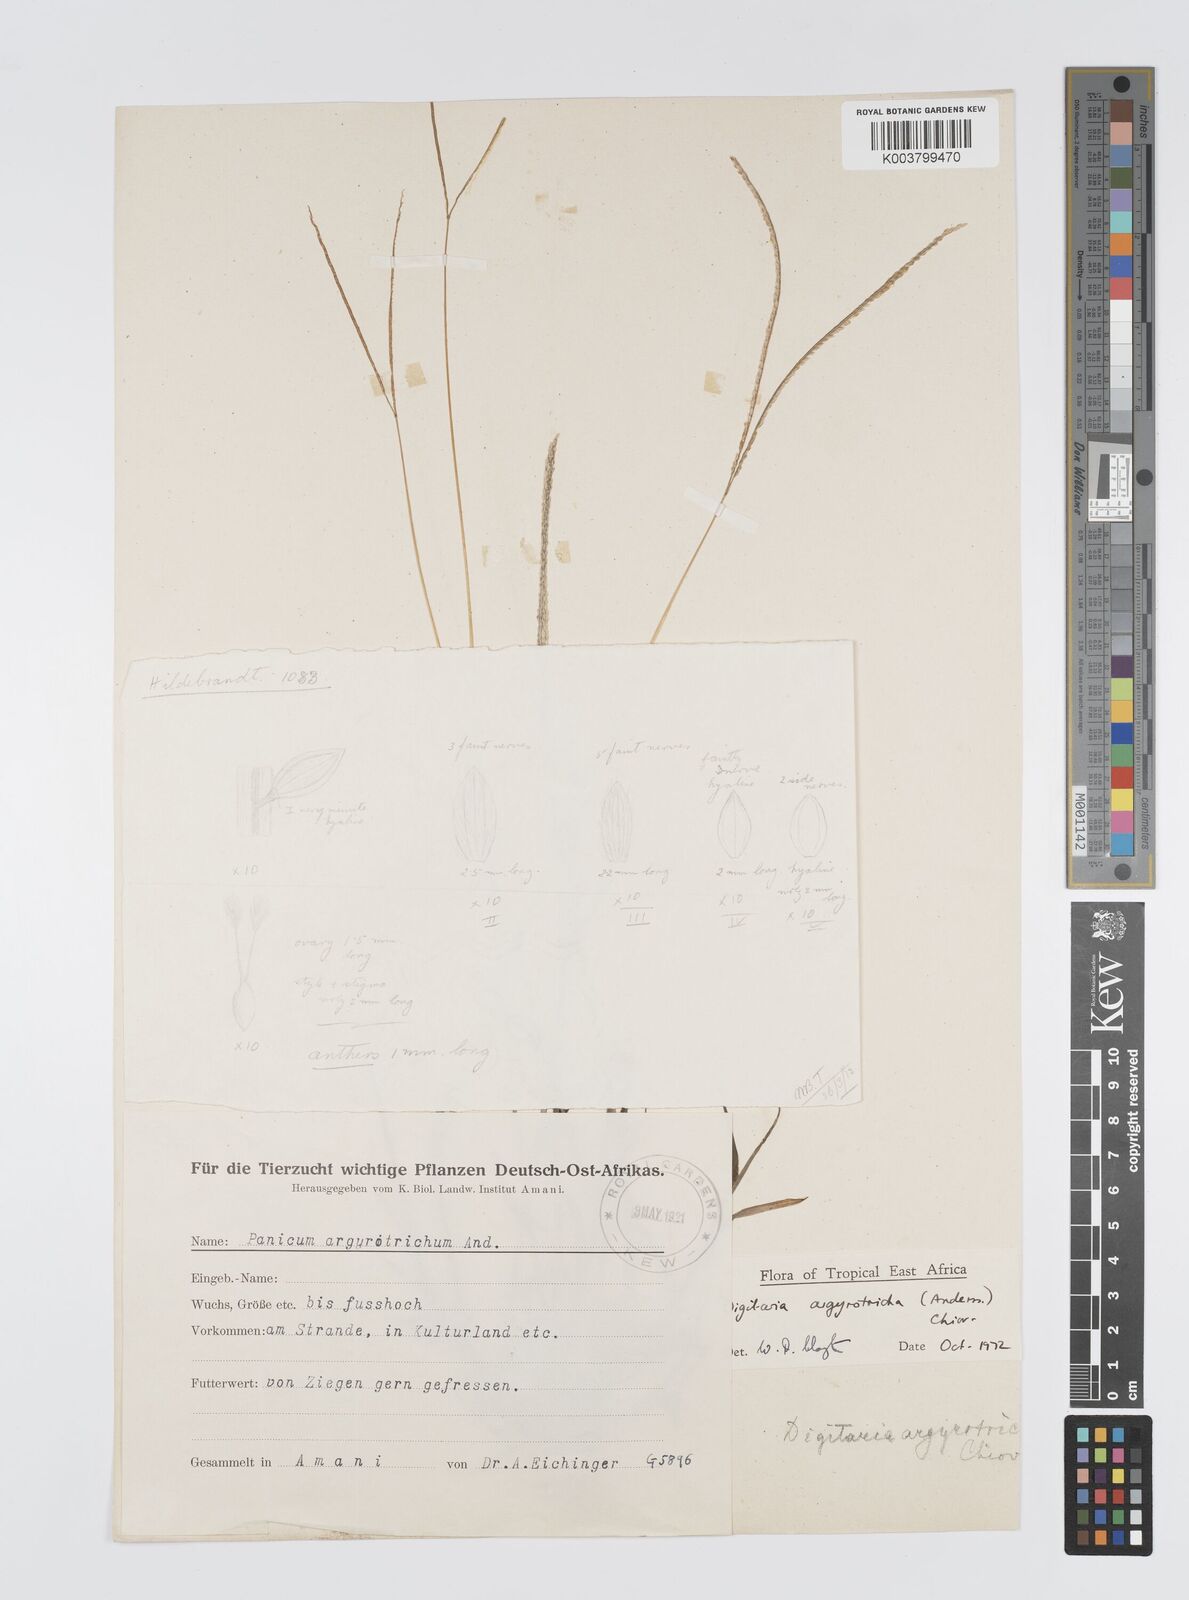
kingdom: Plantae
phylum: Tracheophyta
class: Liliopsida
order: Poales
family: Poaceae
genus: Digitaria
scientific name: Digitaria argyrotricha
